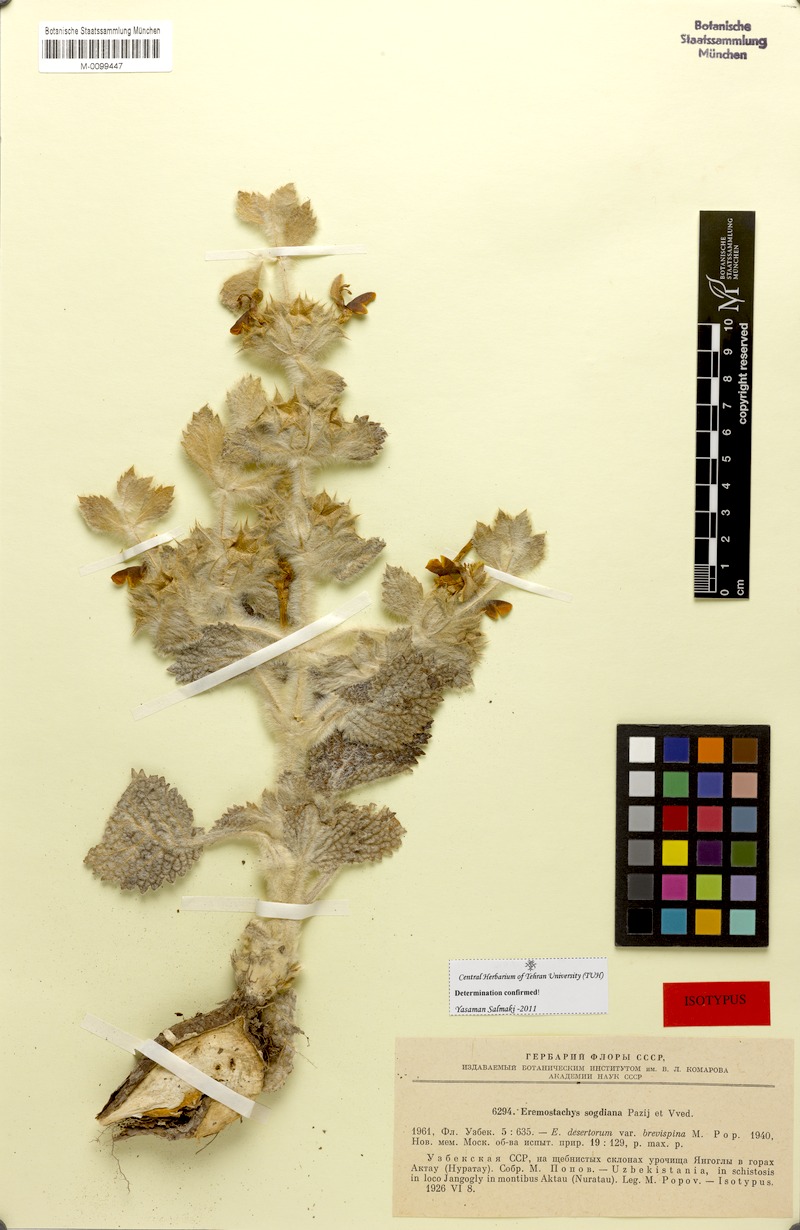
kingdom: Plantae
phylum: Tracheophyta
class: Magnoliopsida
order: Lamiales
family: Lamiaceae
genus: Phlomoides
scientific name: Phlomoides sogdiana
